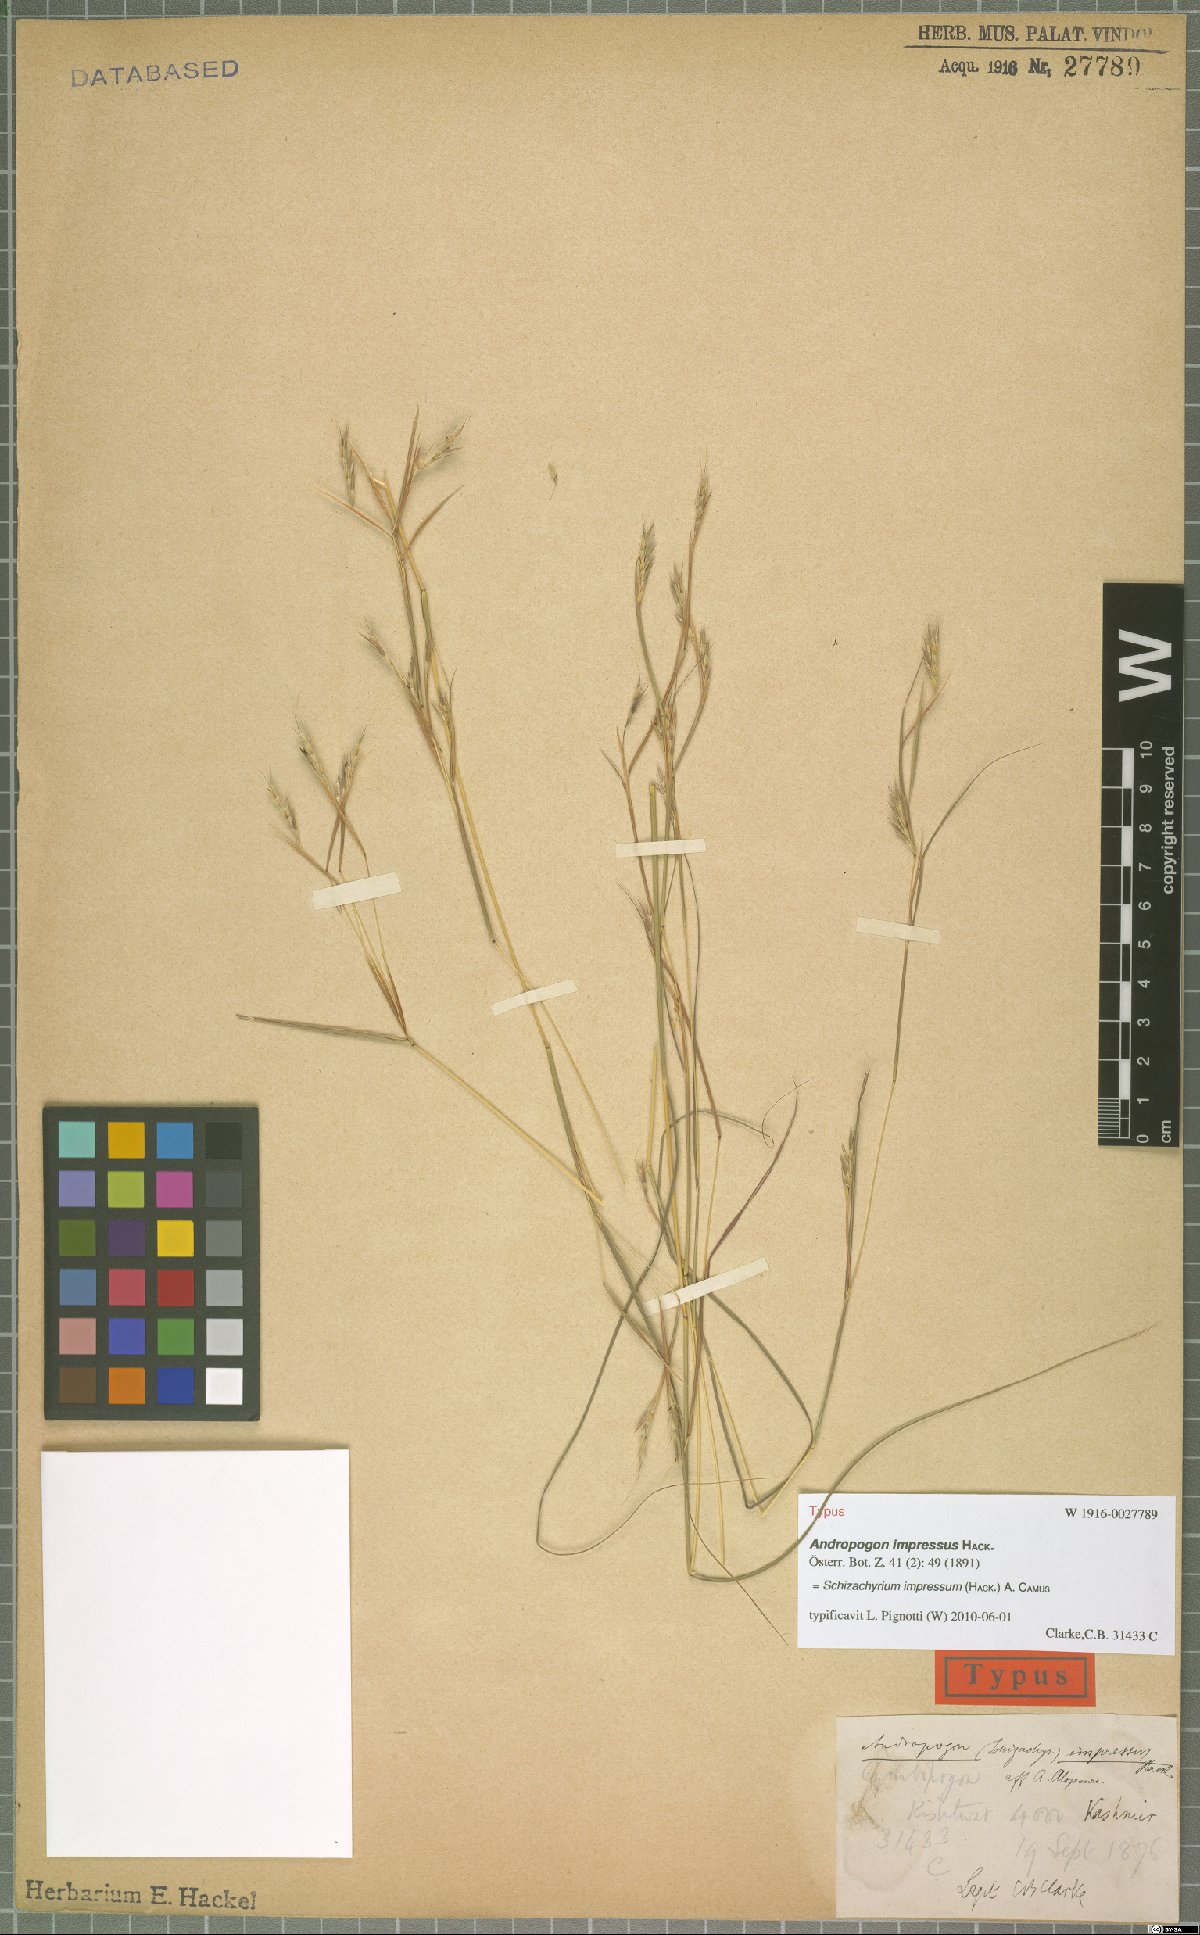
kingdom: Plantae
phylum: Tracheophyta
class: Liliopsida
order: Poales
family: Poaceae
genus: Schizachyrium
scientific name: Schizachyrium impressum
